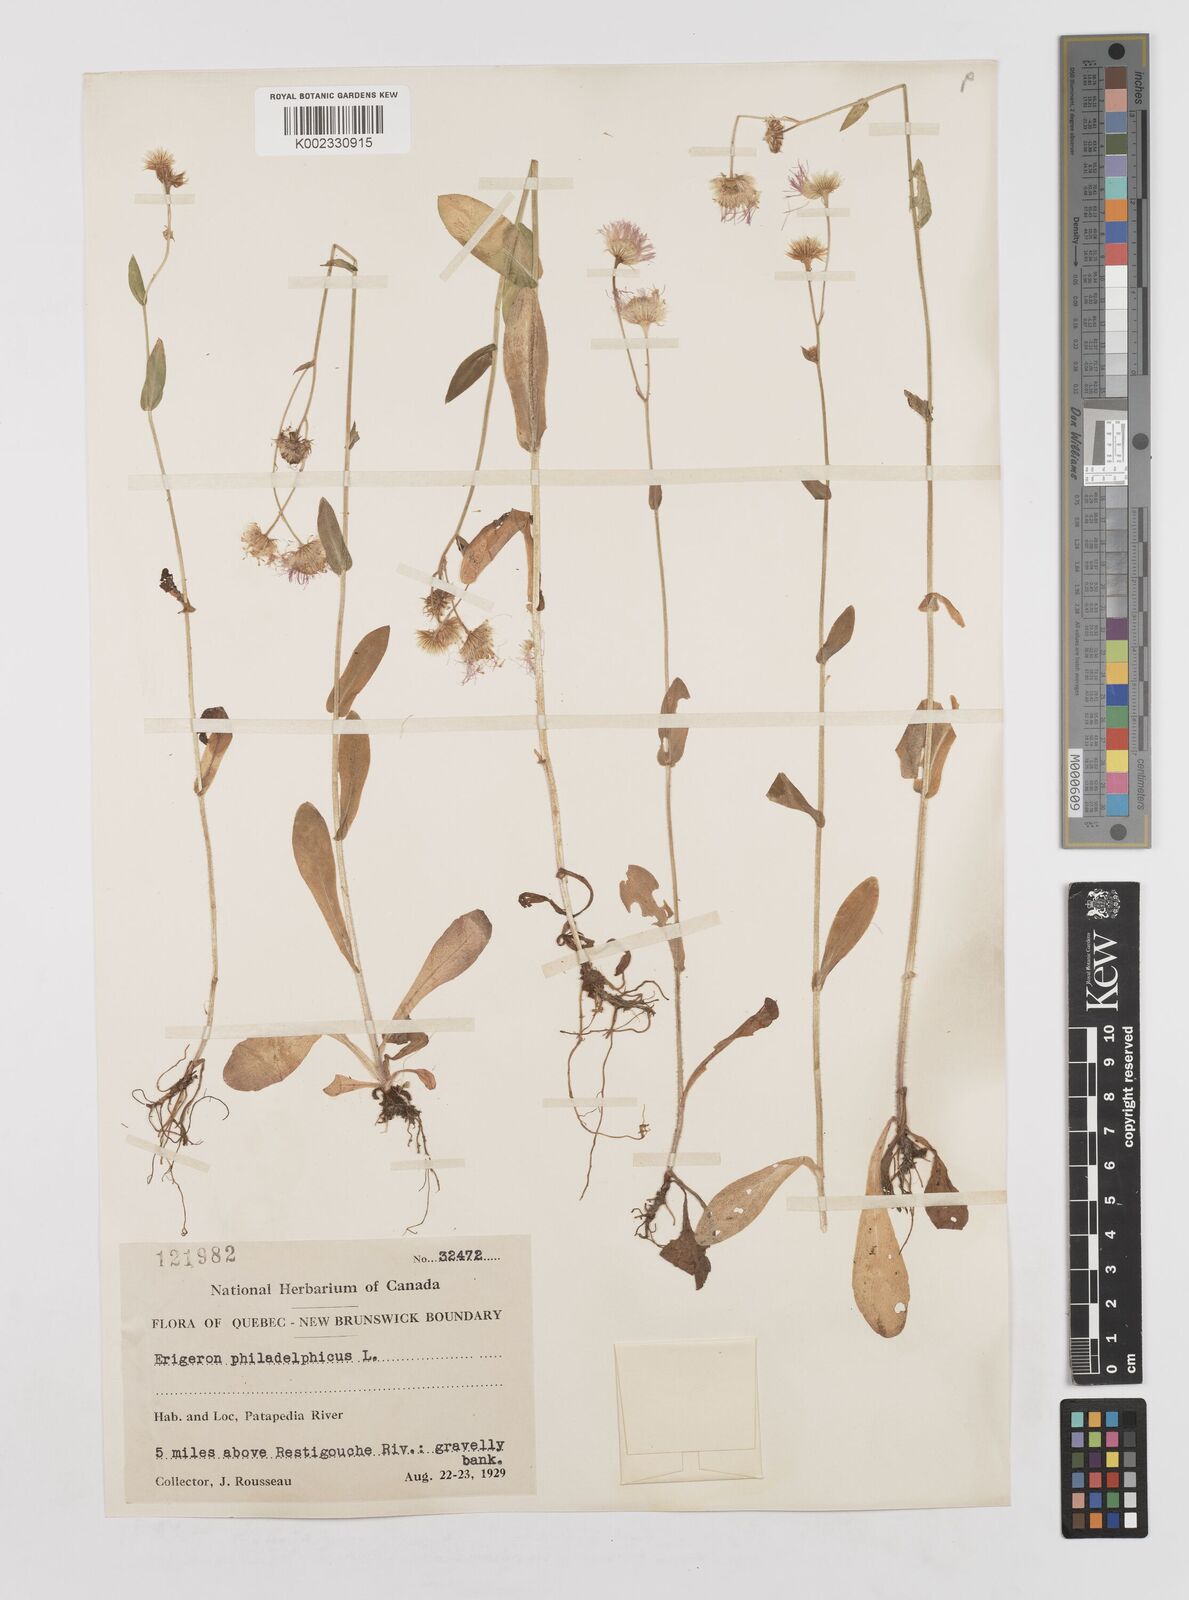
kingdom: Plantae
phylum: Tracheophyta
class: Magnoliopsida
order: Asterales
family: Asteraceae
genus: Erigeron
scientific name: Erigeron philadelphicus
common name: Robin's-plantain
